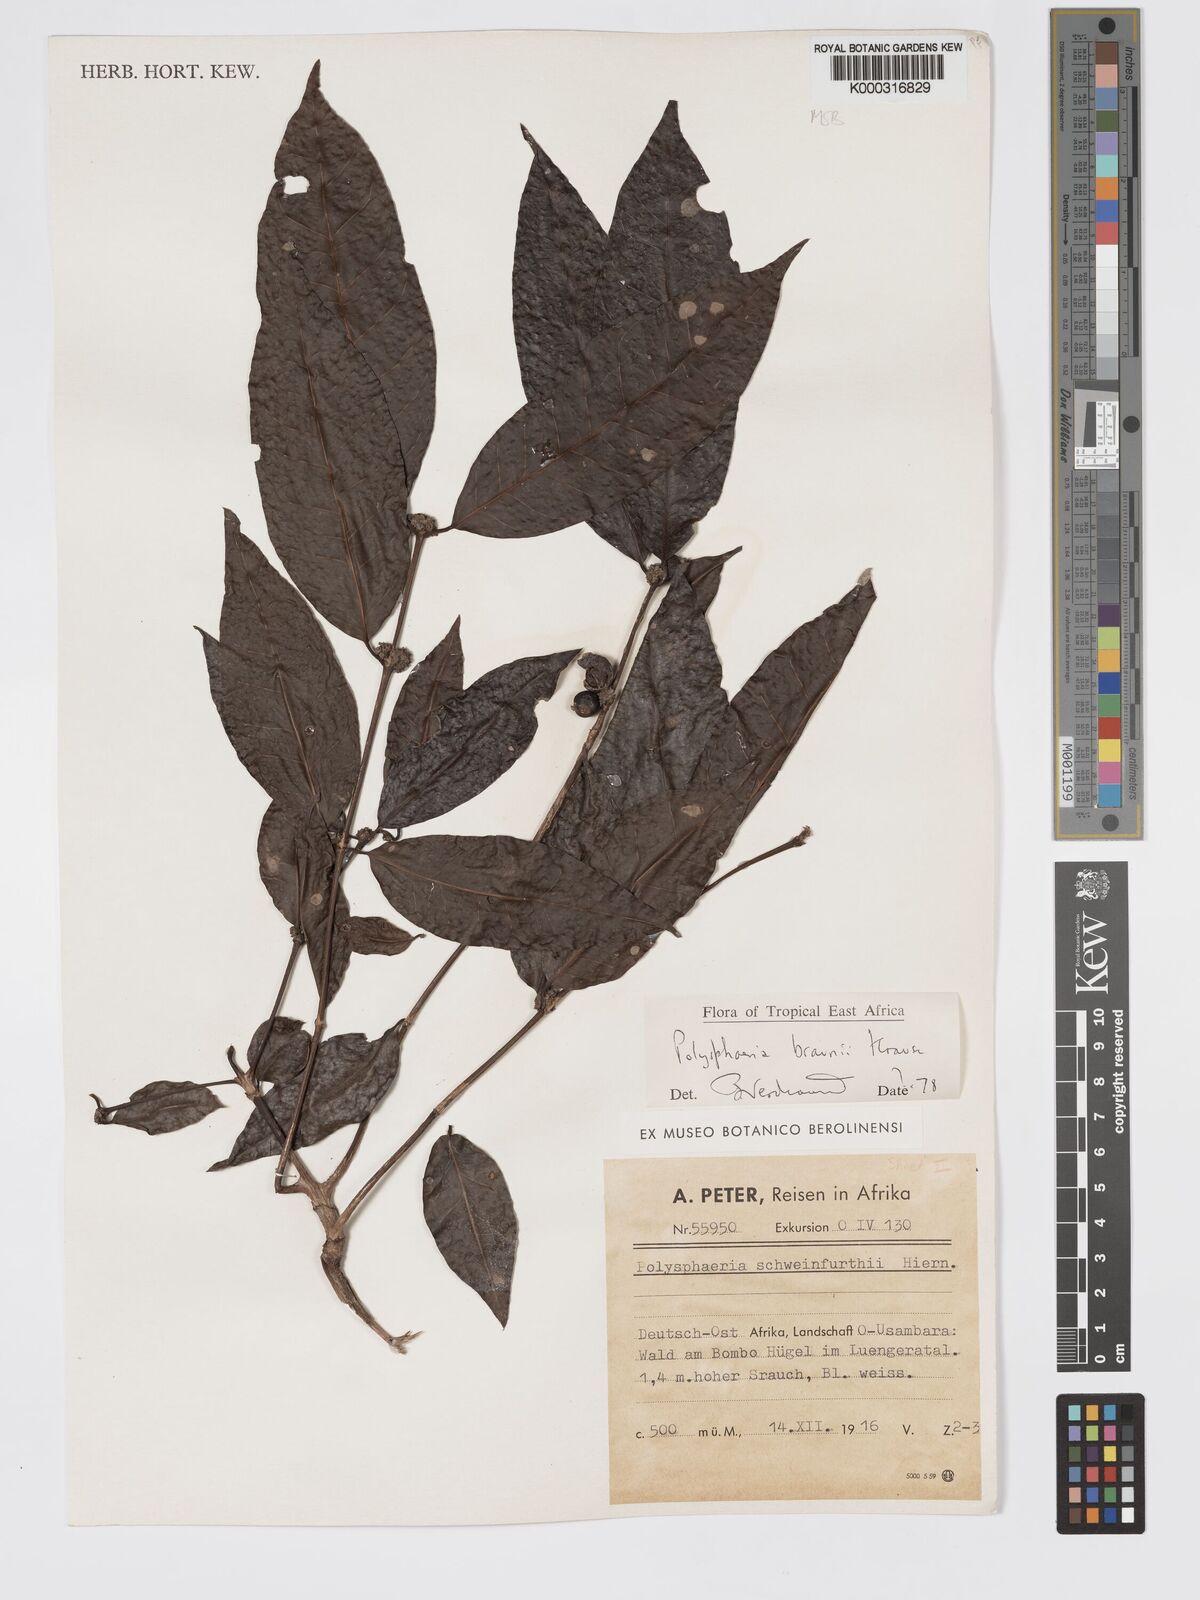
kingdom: Plantae
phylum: Tracheophyta
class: Magnoliopsida
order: Gentianales
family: Rubiaceae
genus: Polysphaeria
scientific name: Polysphaeria braunii
